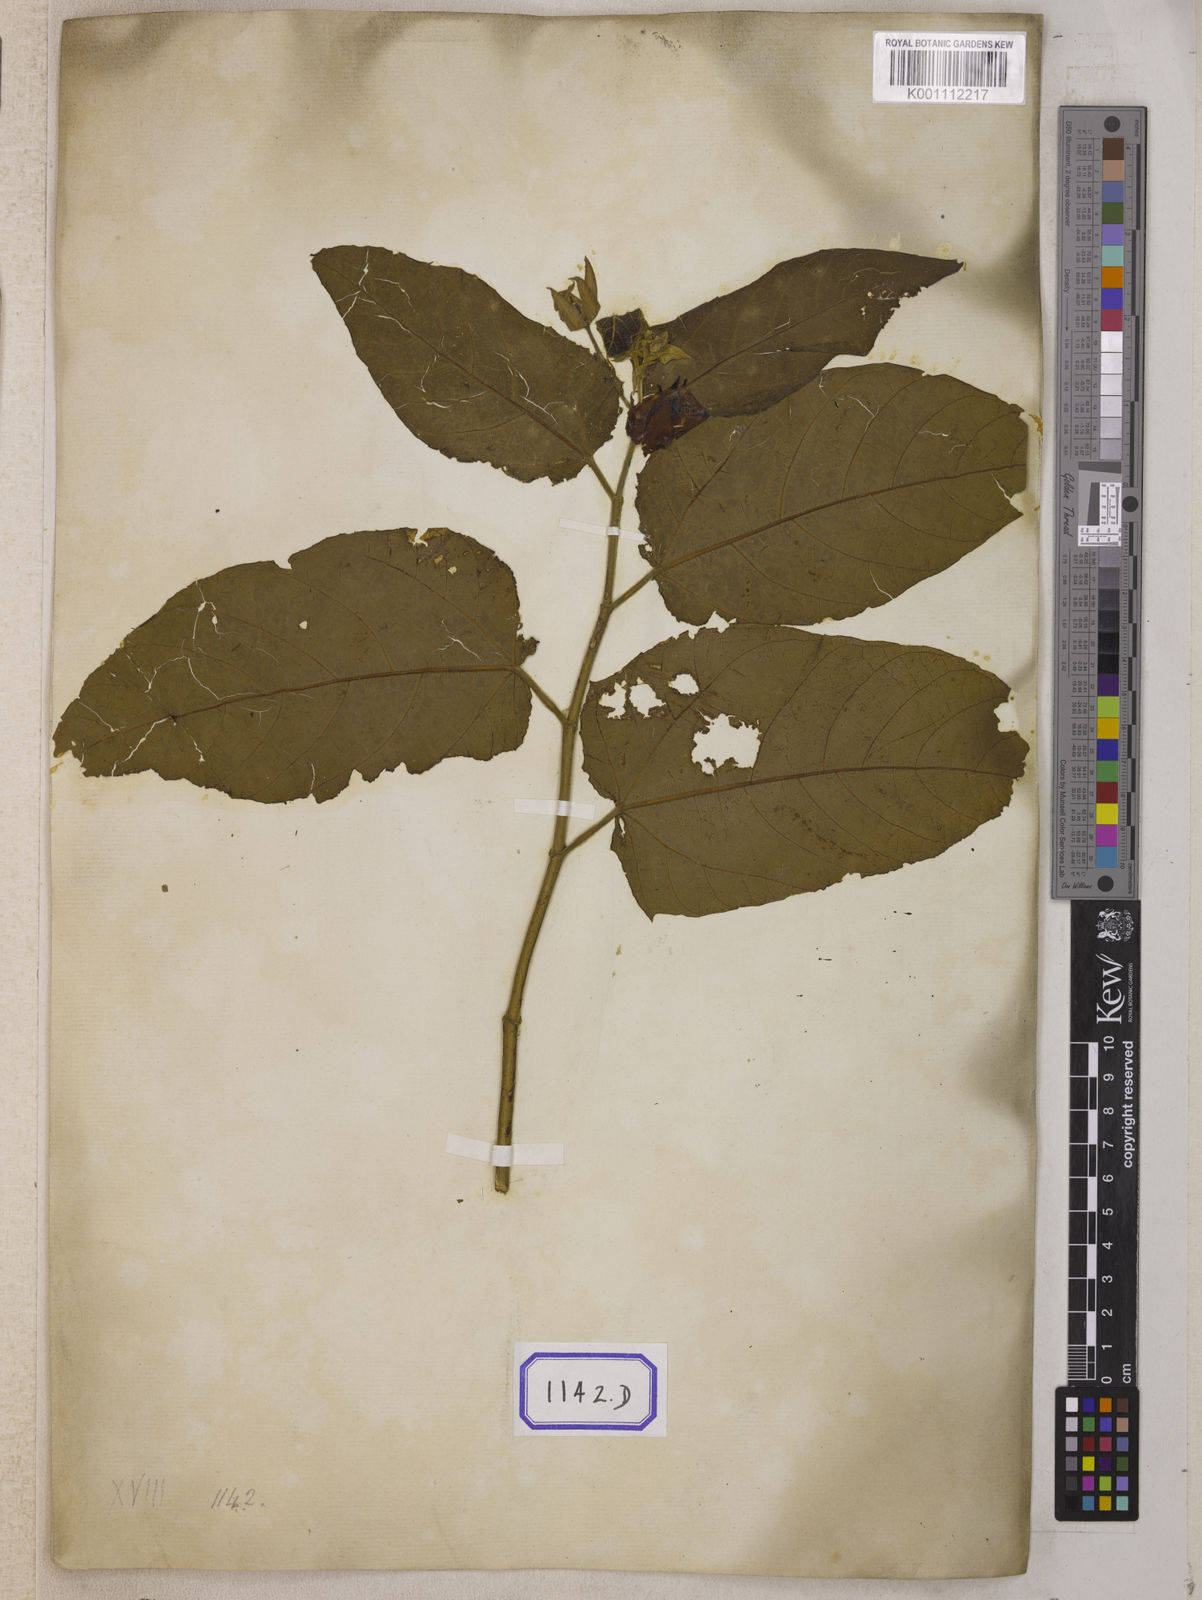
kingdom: Plantae
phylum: Tracheophyta
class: Magnoliopsida
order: Malvales
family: Malvaceae
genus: Abroma
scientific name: Abroma augustum
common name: Devil's-cotton
